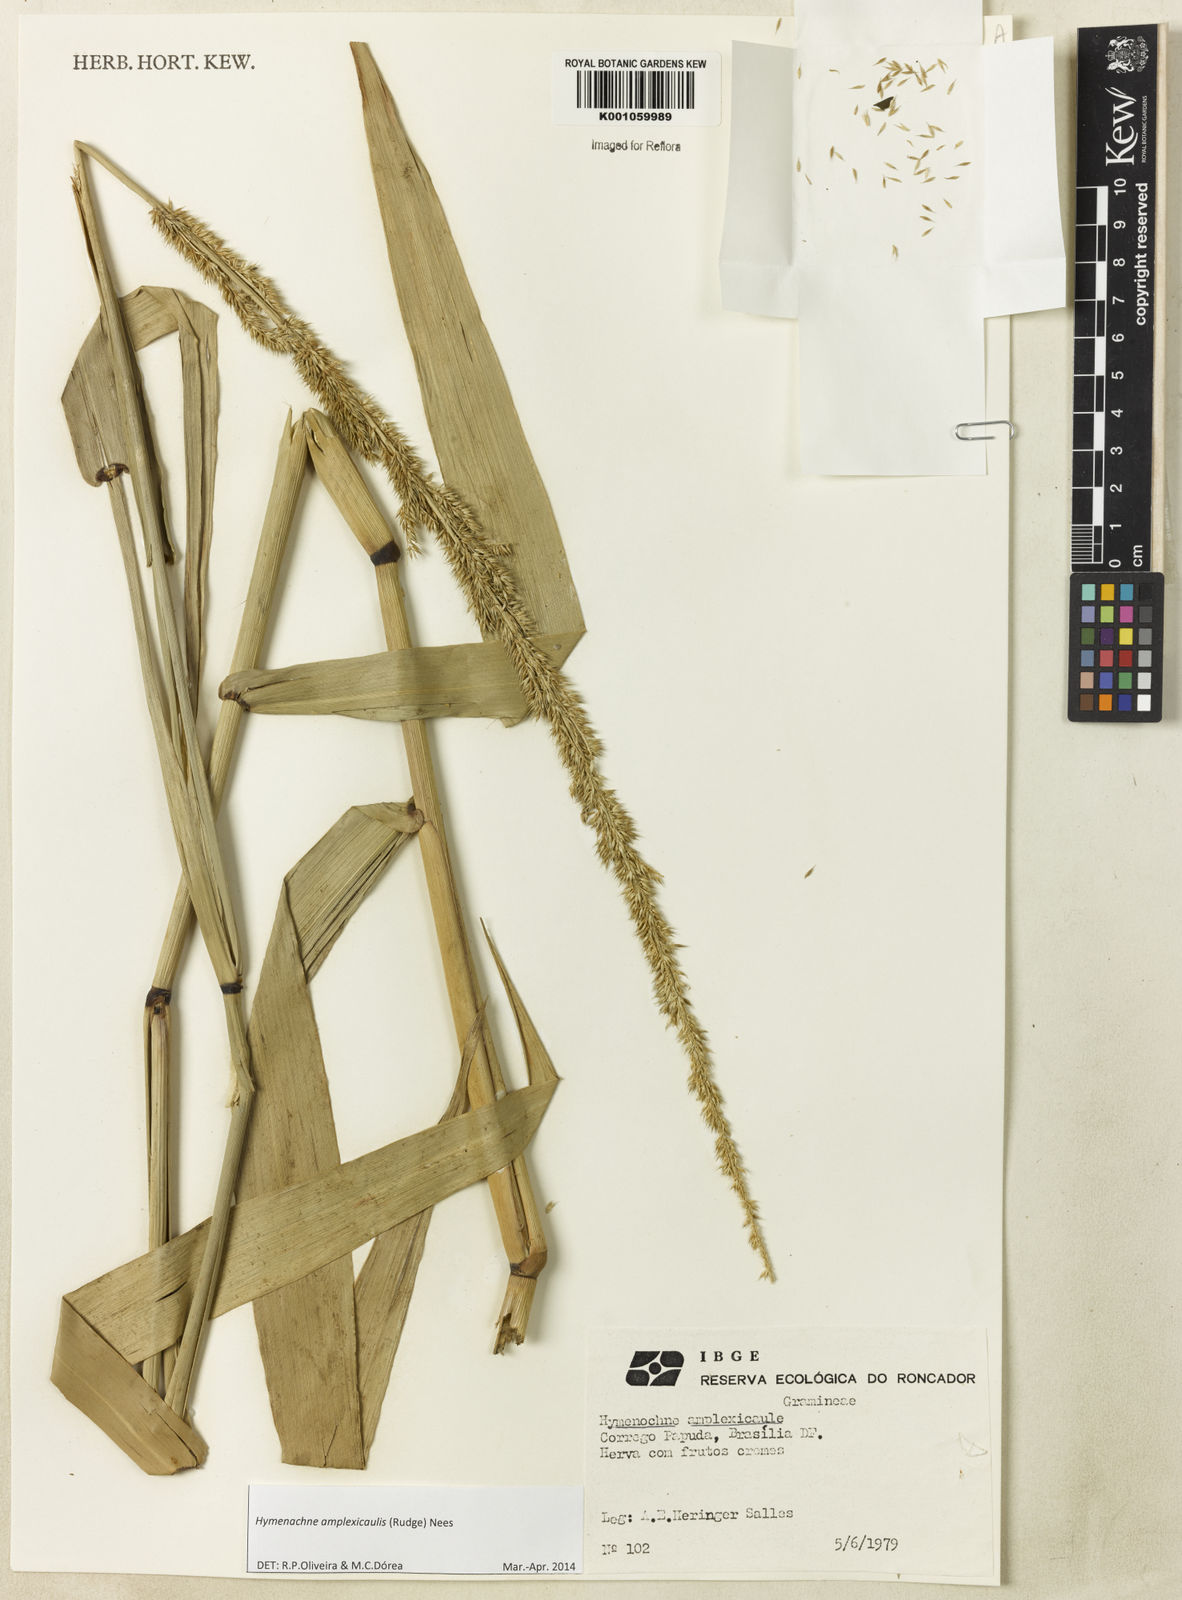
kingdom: Plantae
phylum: Tracheophyta
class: Liliopsida
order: Poales
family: Poaceae
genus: Hymenachne
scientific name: Hymenachne amplexicaulis
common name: Olive hymenachne
